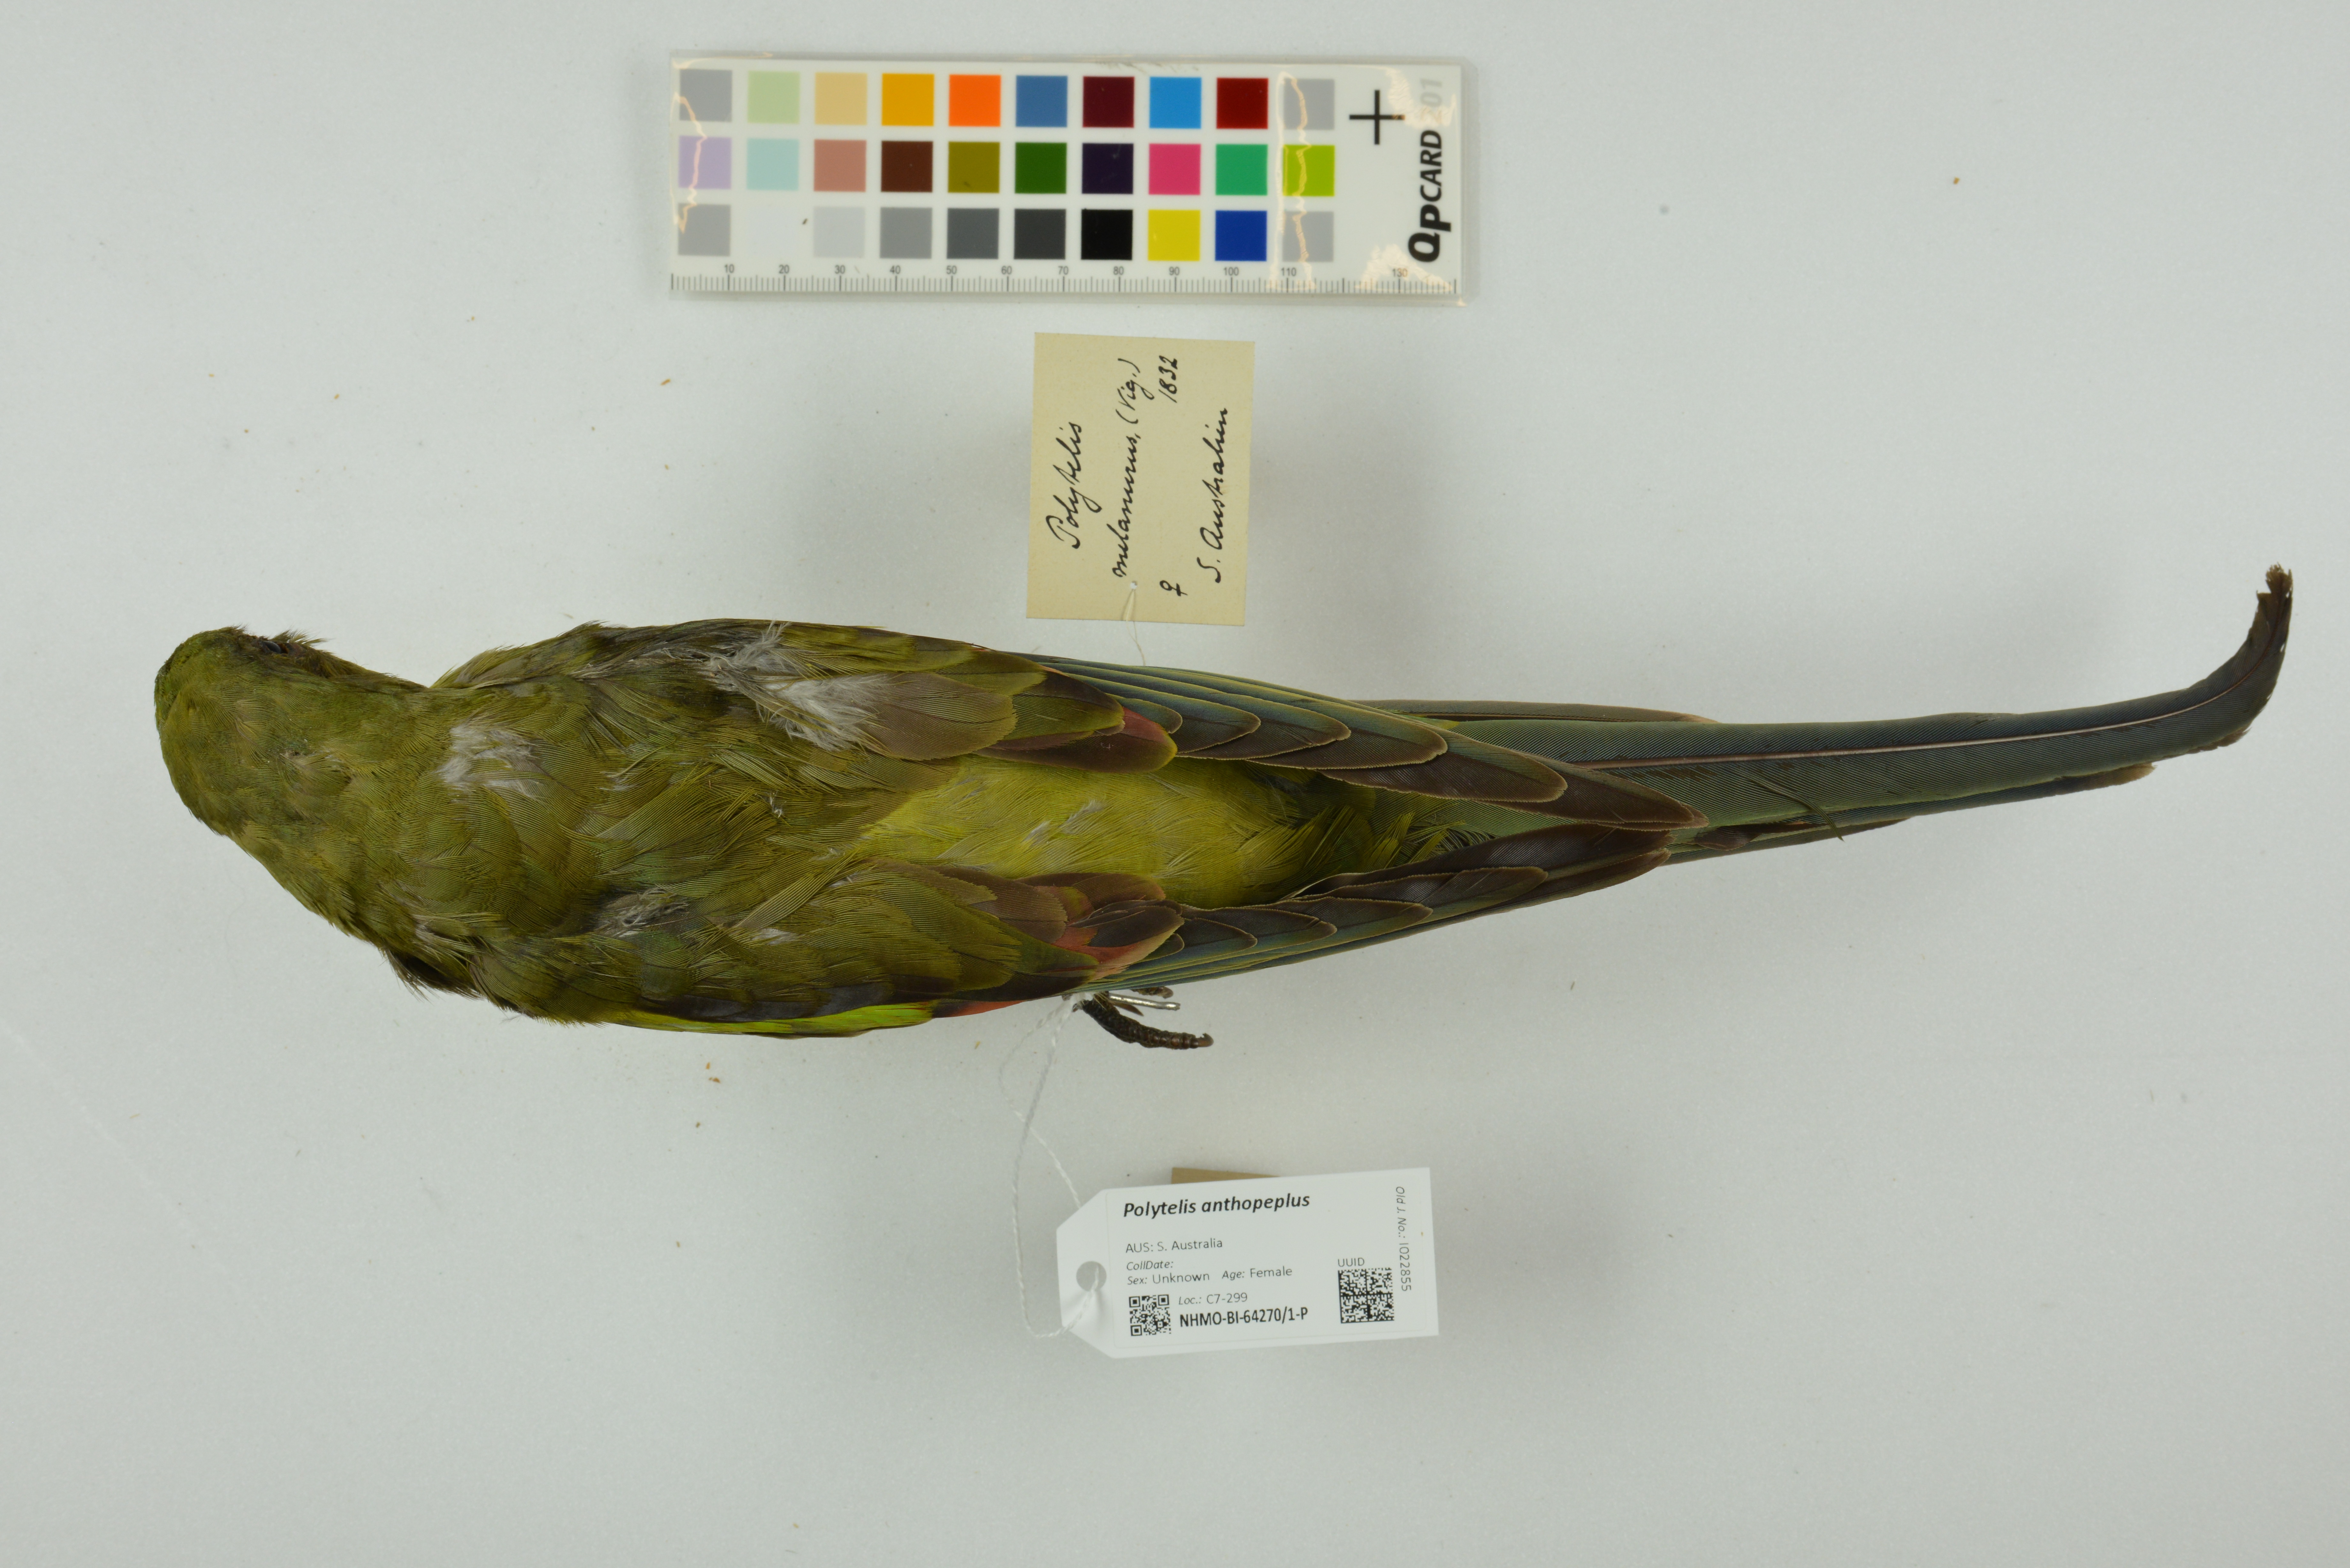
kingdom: Animalia
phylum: Chordata
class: Aves
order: Psittaciformes
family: Psittacidae
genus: Polytelis
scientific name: Polytelis anthopeplus
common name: Regent parrot
